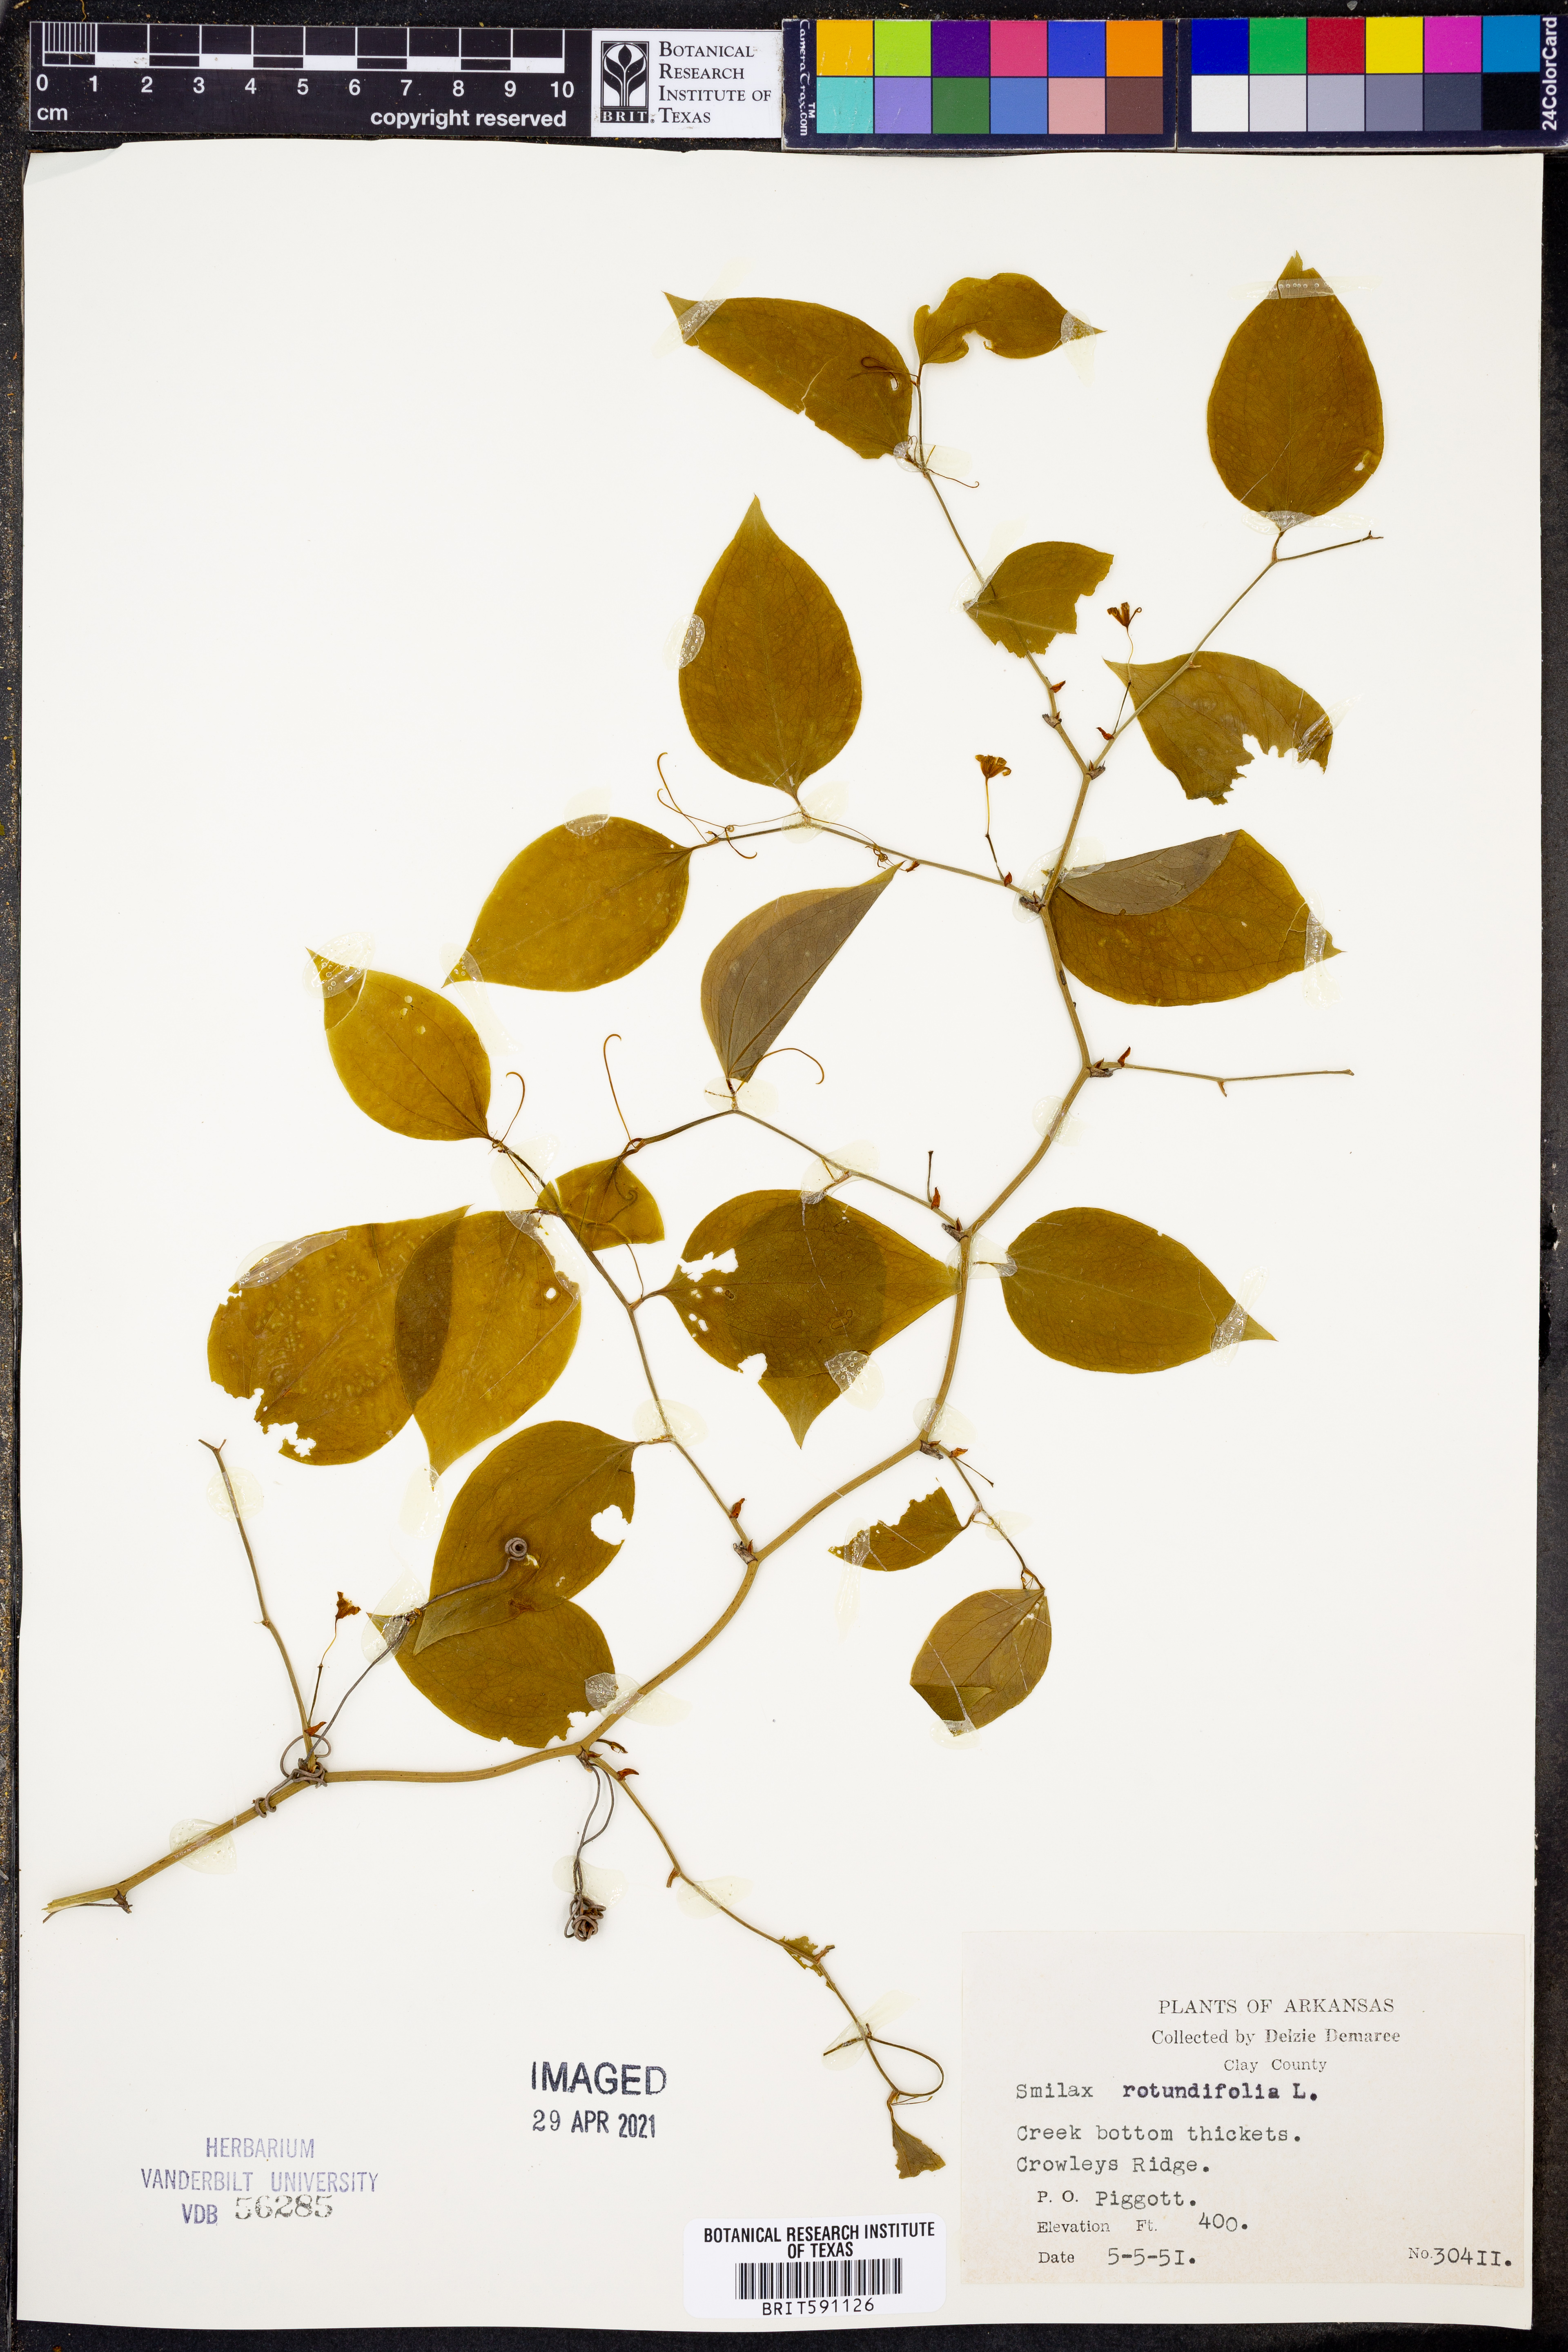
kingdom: Plantae
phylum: Tracheophyta
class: Liliopsida
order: Liliales
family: Smilacaceae
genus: Smilax
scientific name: Smilax rotundifolia
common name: Bullbriar
